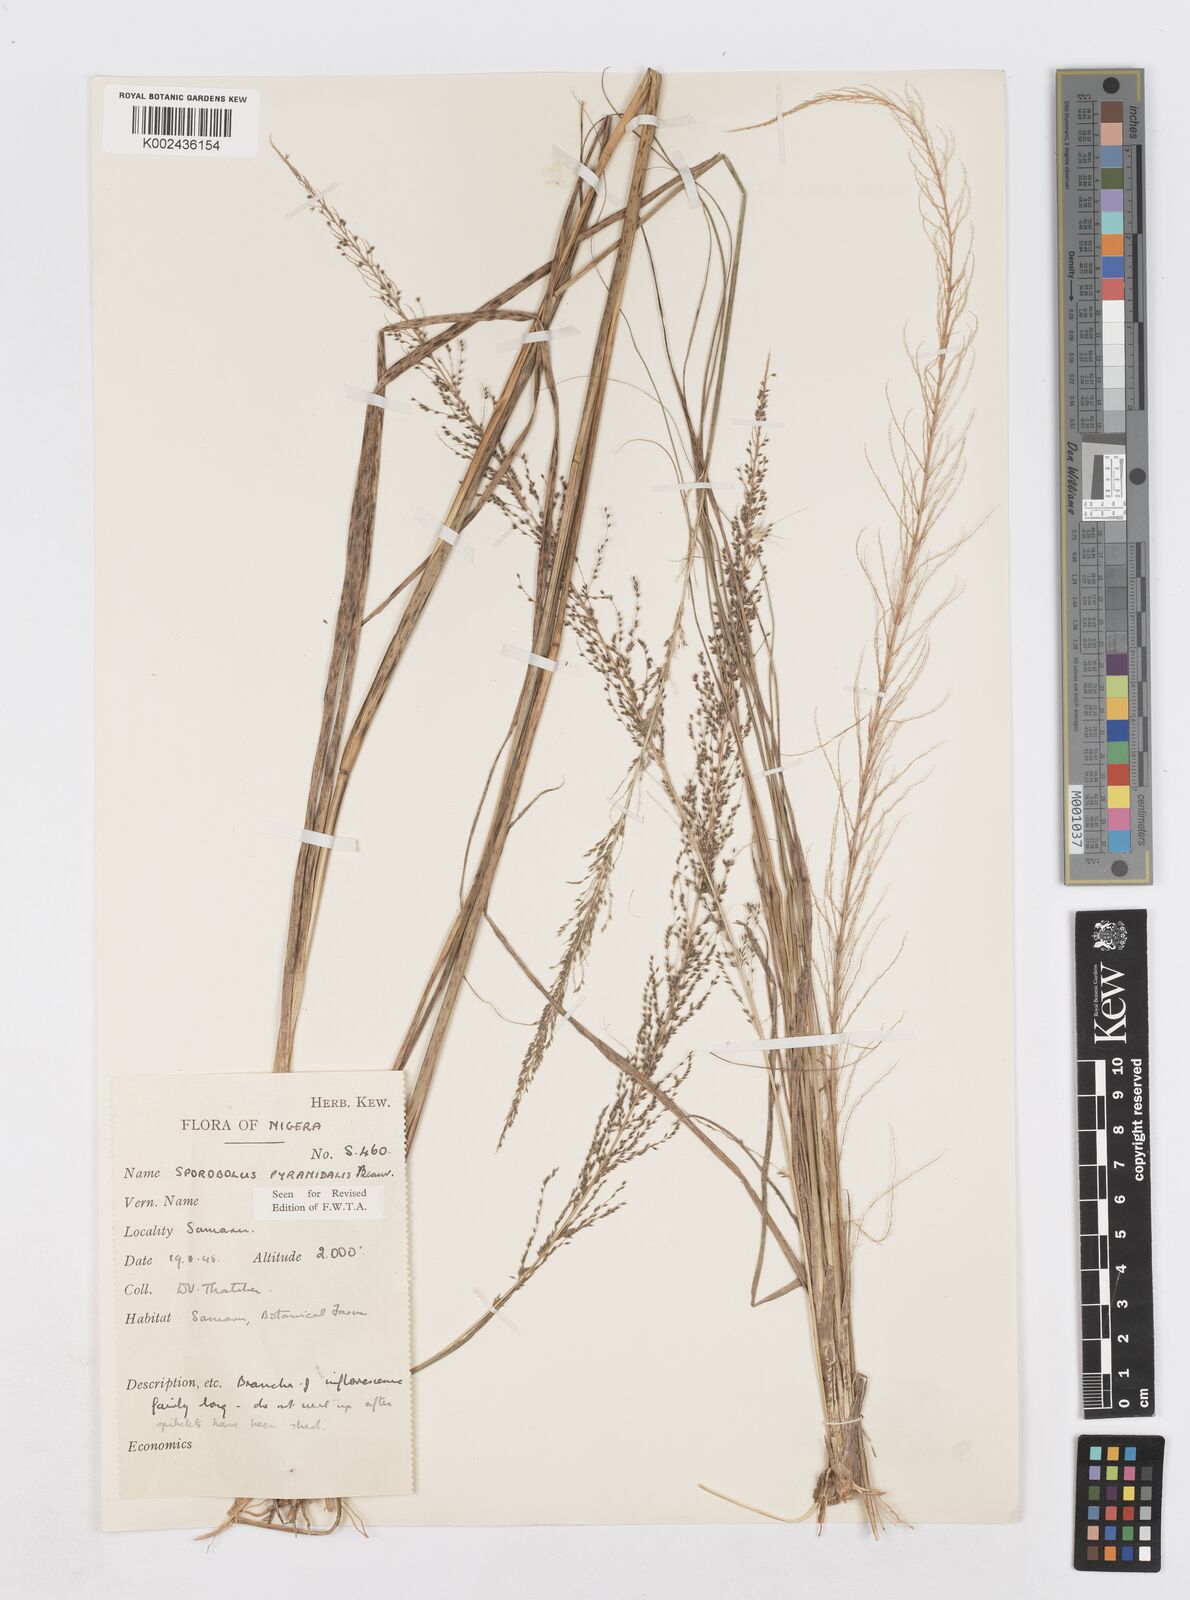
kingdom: Plantae
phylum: Tracheophyta
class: Liliopsida
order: Poales
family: Poaceae
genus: Sporobolus
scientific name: Sporobolus pyramidalis
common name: West indian dropseed
